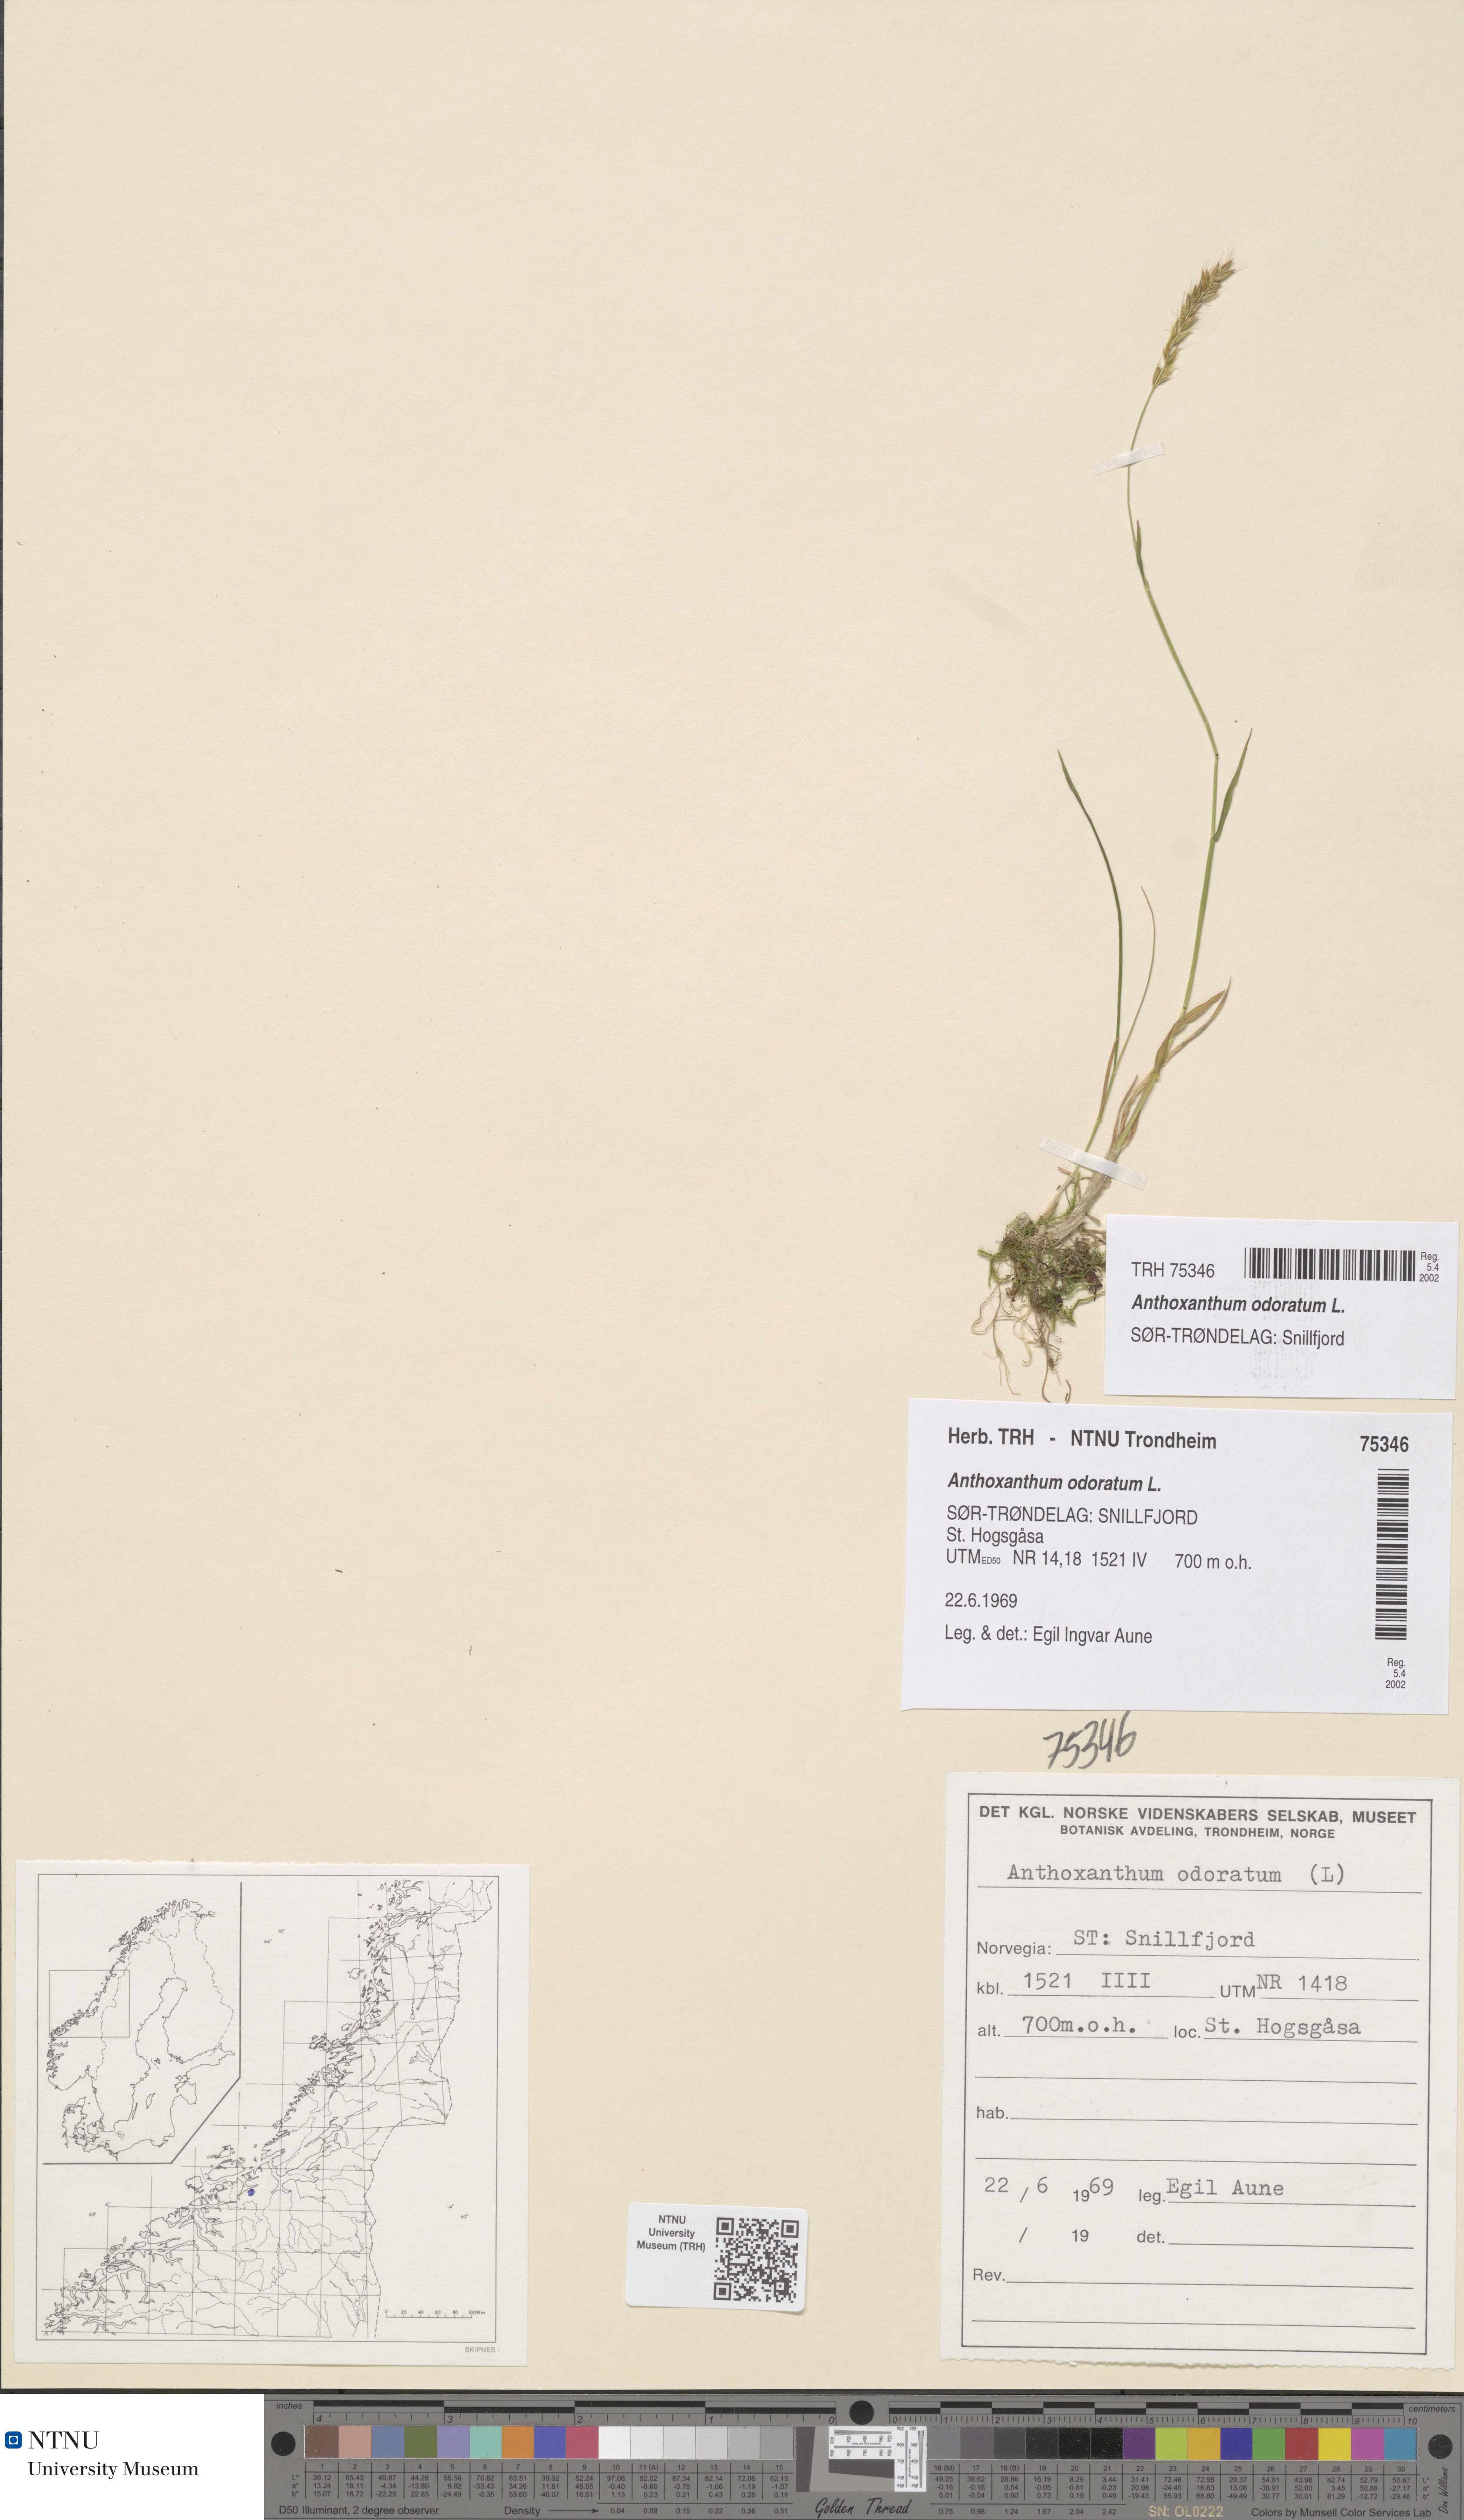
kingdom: Plantae
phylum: Tracheophyta
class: Liliopsida
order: Poales
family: Poaceae
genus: Anthoxanthum
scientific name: Anthoxanthum odoratum
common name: Sweet vernalgrass
